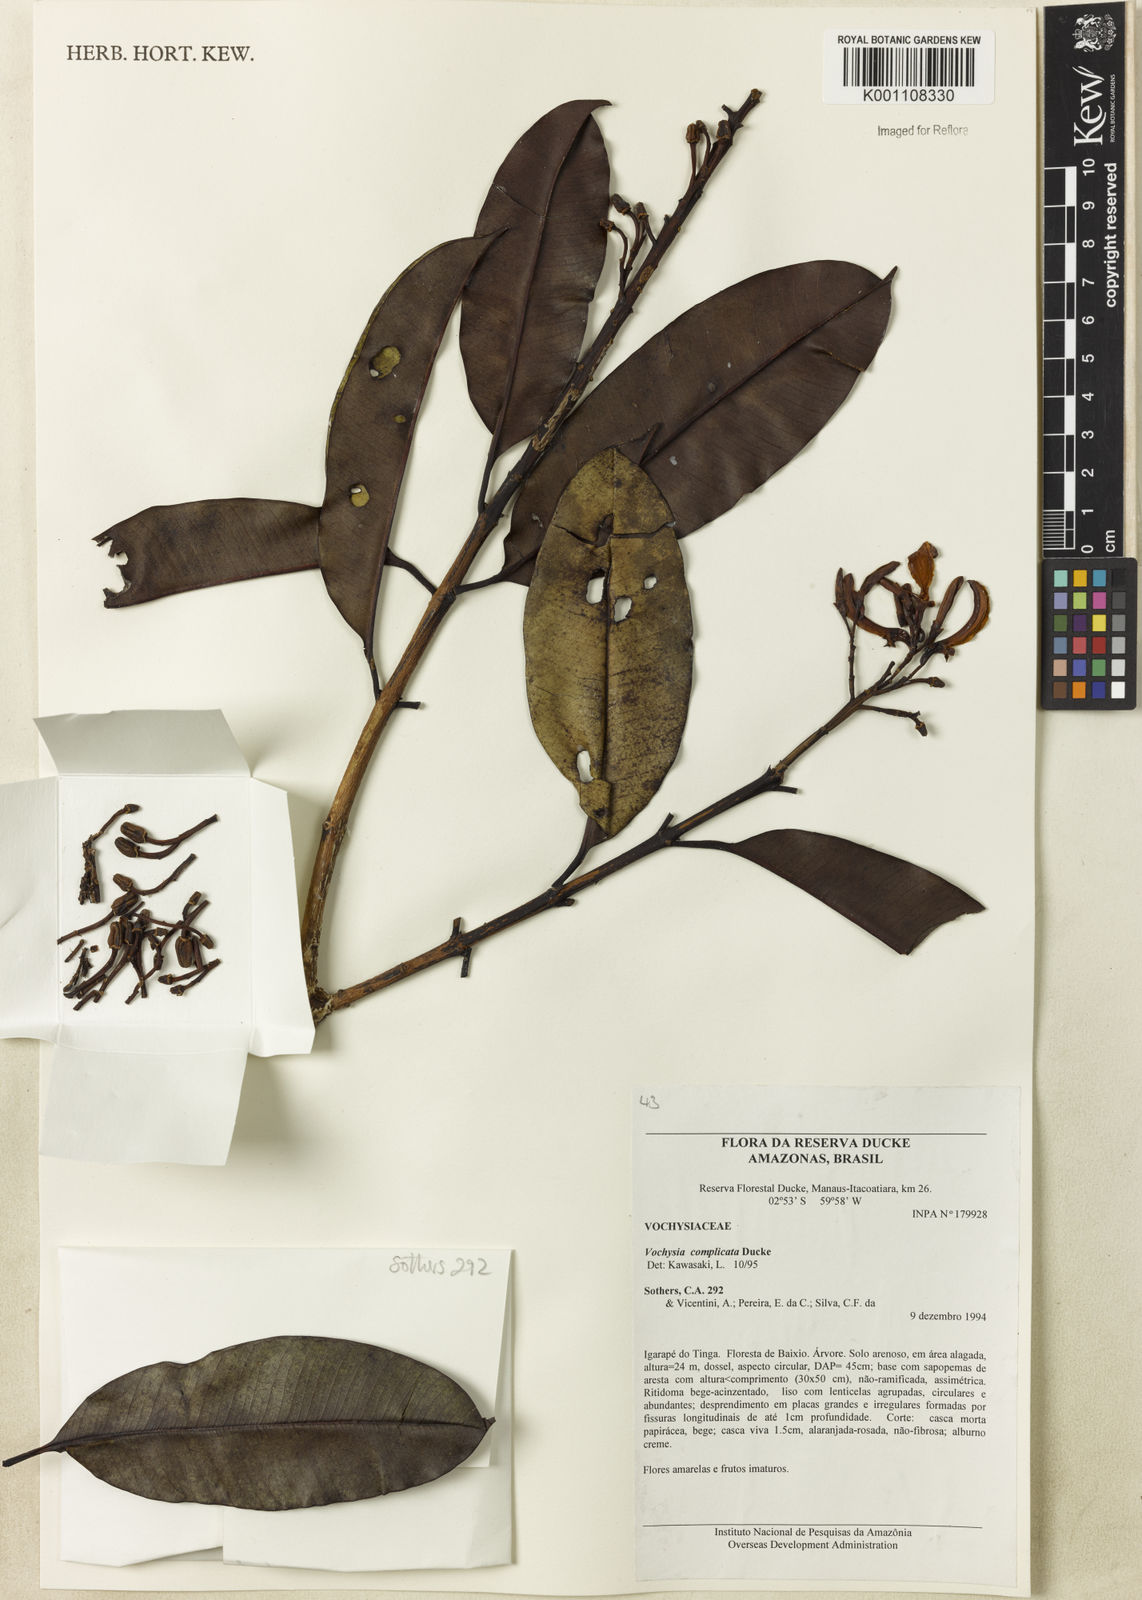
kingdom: Plantae
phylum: Tracheophyta
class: Magnoliopsida
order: Myrtales
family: Vochysiaceae
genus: Vochysia
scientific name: Vochysia complicata
